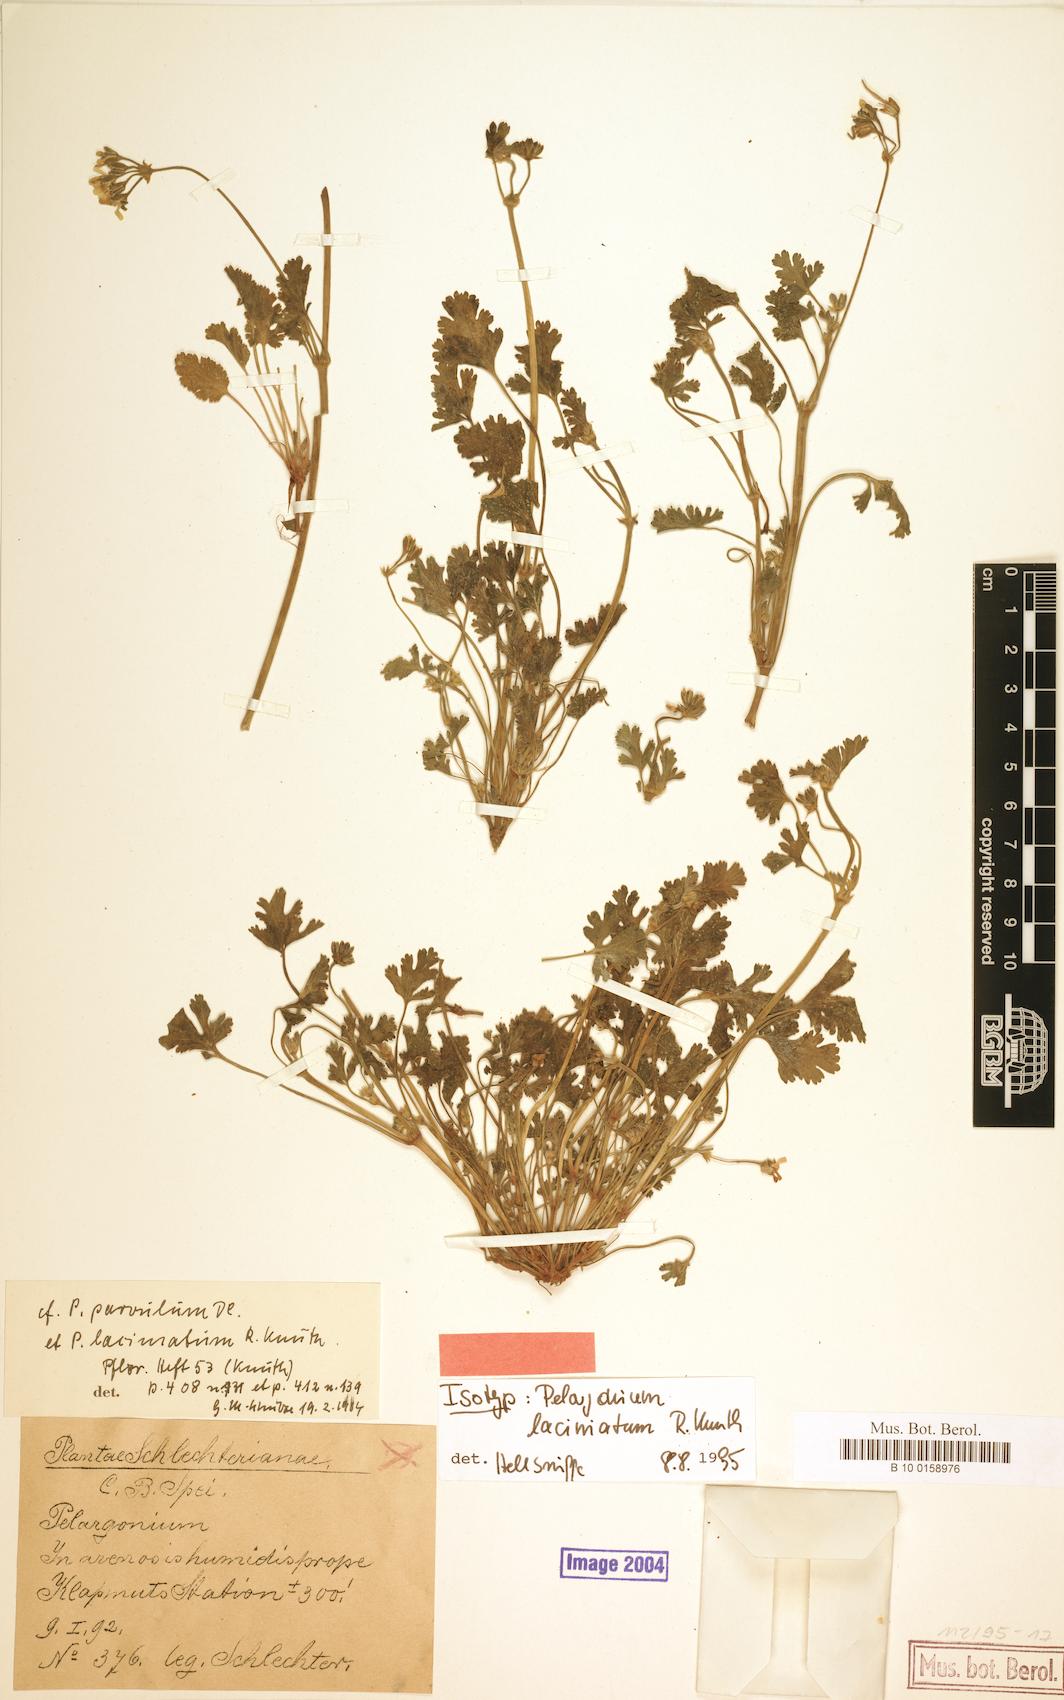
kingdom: Plantae
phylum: Tracheophyta
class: Magnoliopsida
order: Geraniales
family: Geraniaceae
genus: Pelargonium
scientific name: Pelargonium laciniatum
